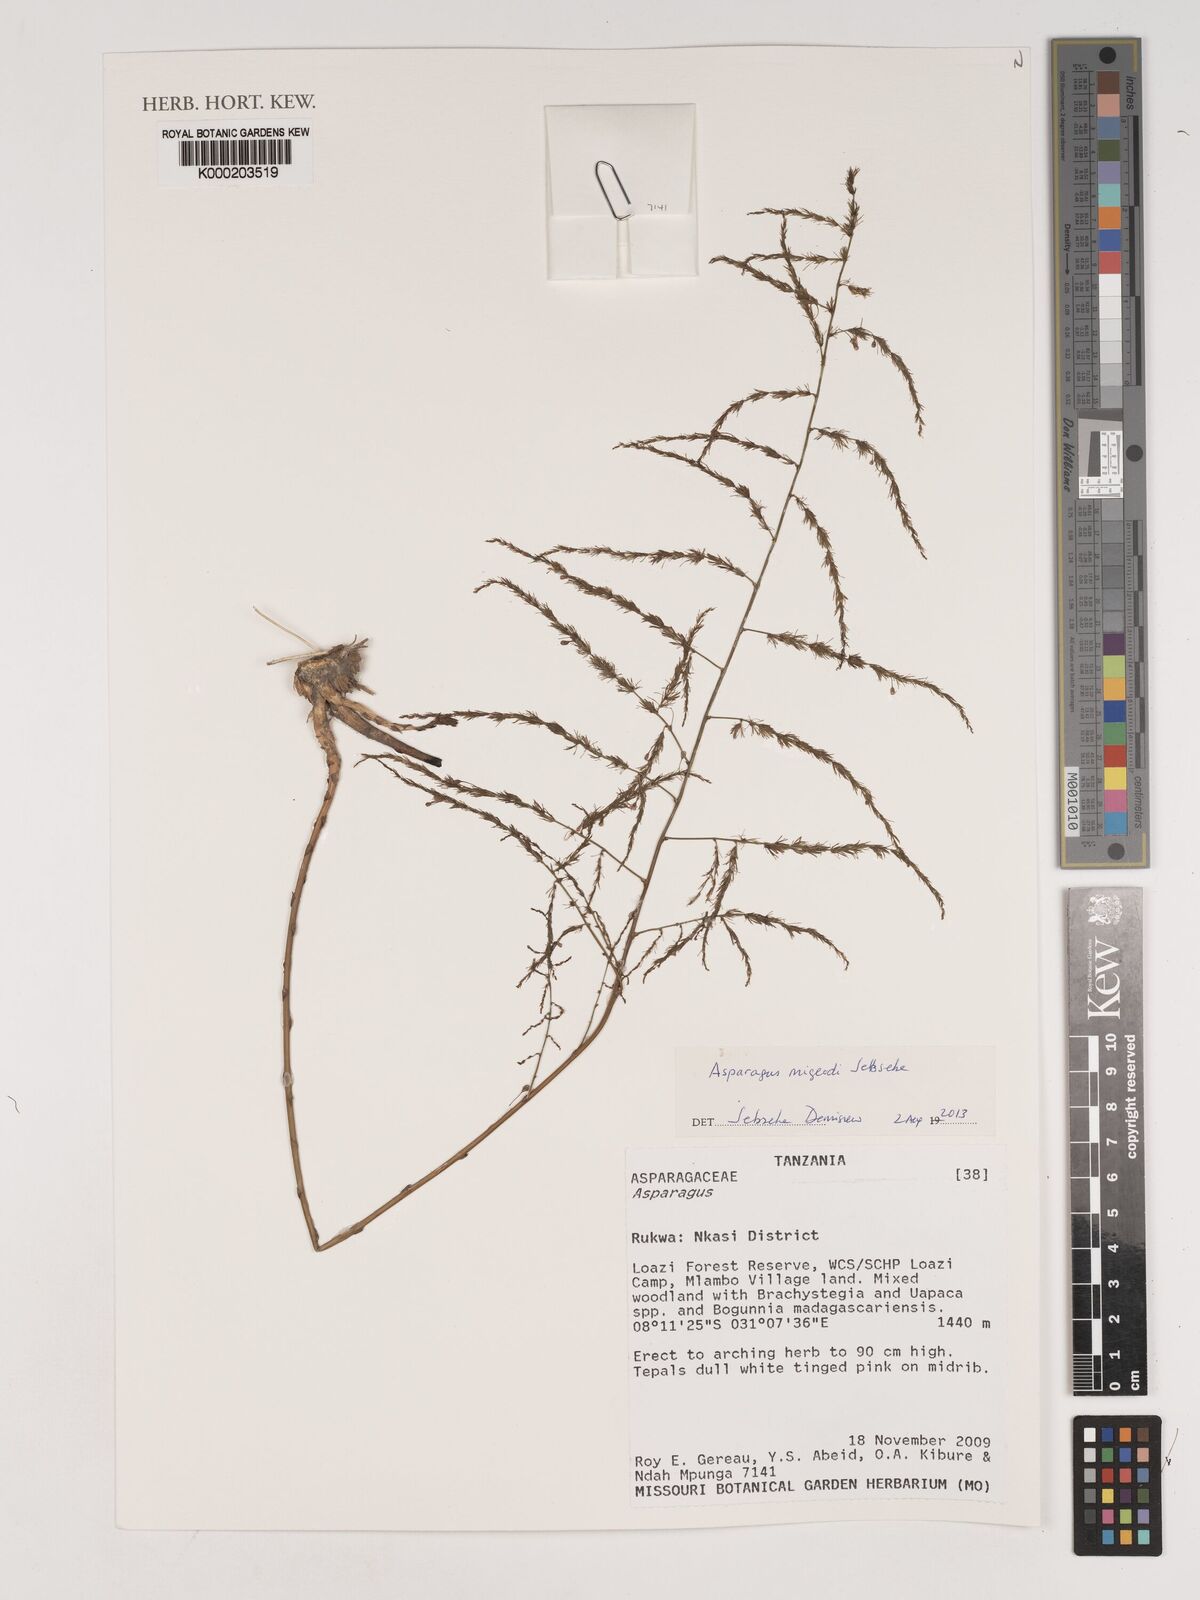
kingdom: Plantae
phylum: Tracheophyta
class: Liliopsida
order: Asparagales
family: Asparagaceae
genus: Asparagus
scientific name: Asparagus migeodii
